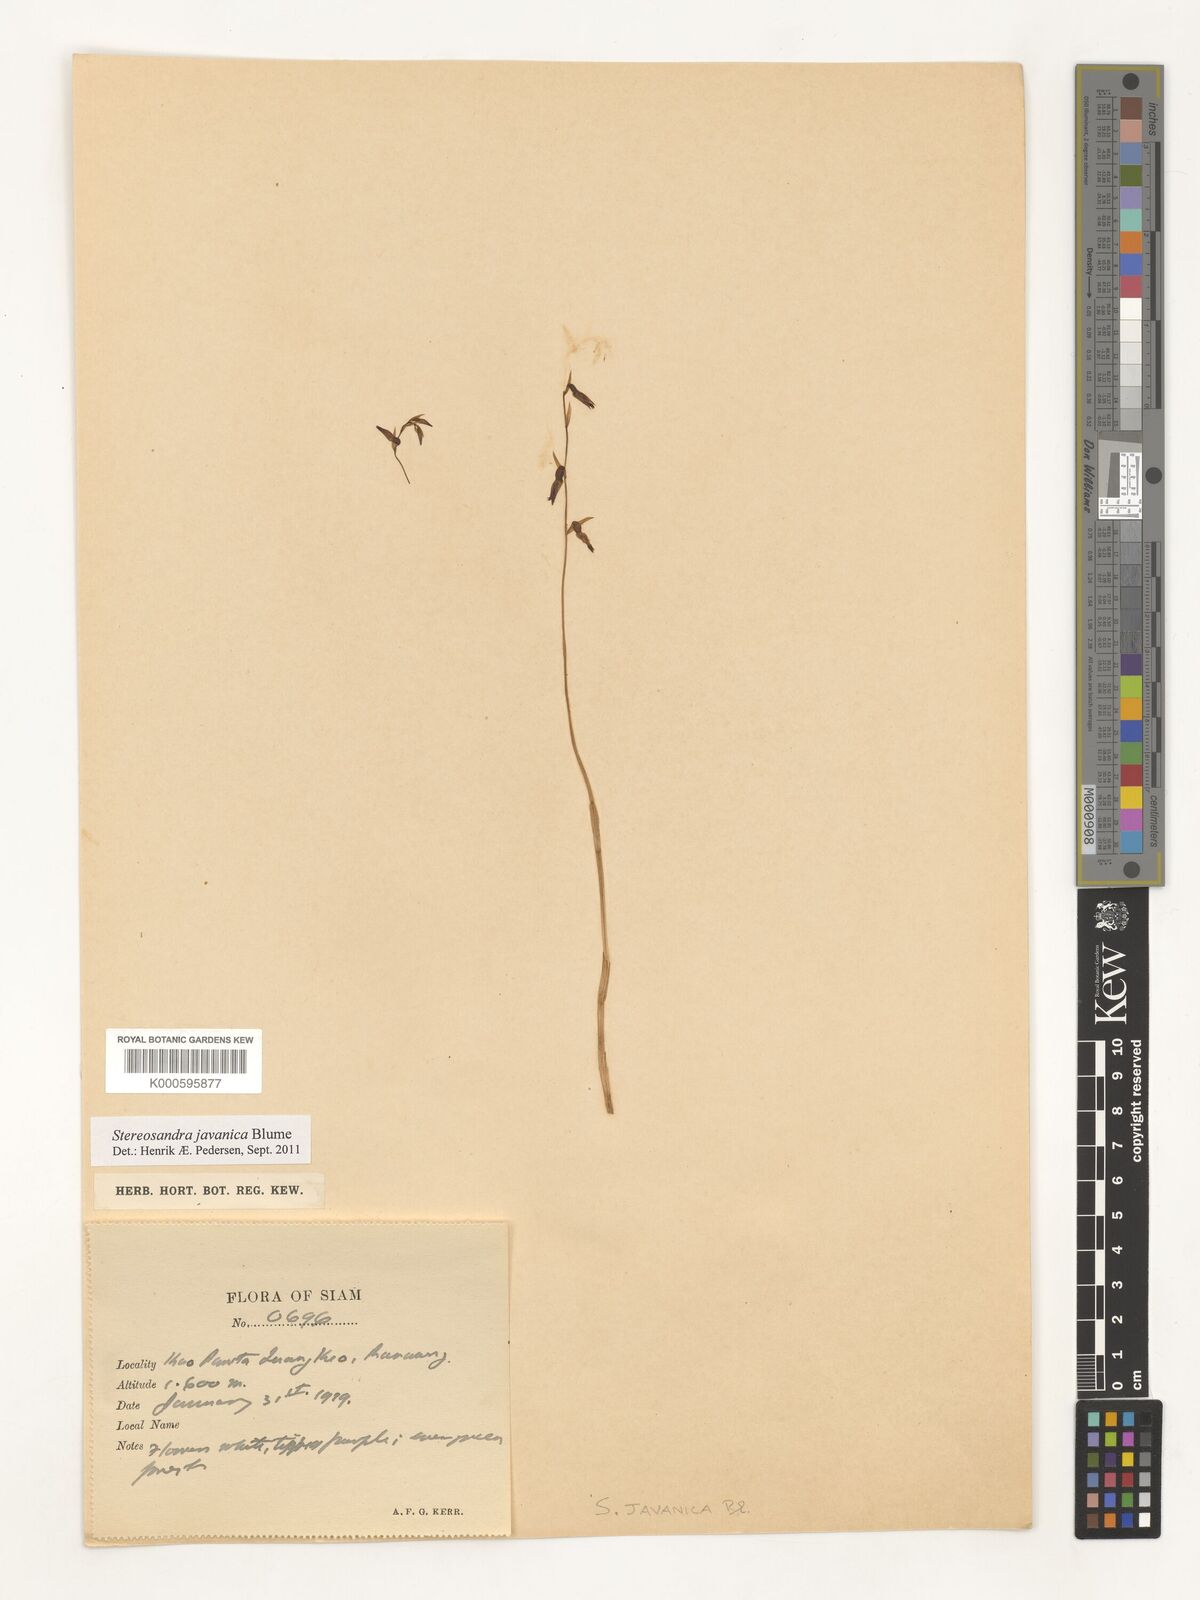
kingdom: Plantae
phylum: Tracheophyta
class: Liliopsida
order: Asparagales
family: Orchidaceae
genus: Stereosandra
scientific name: Stereosandra javanica
